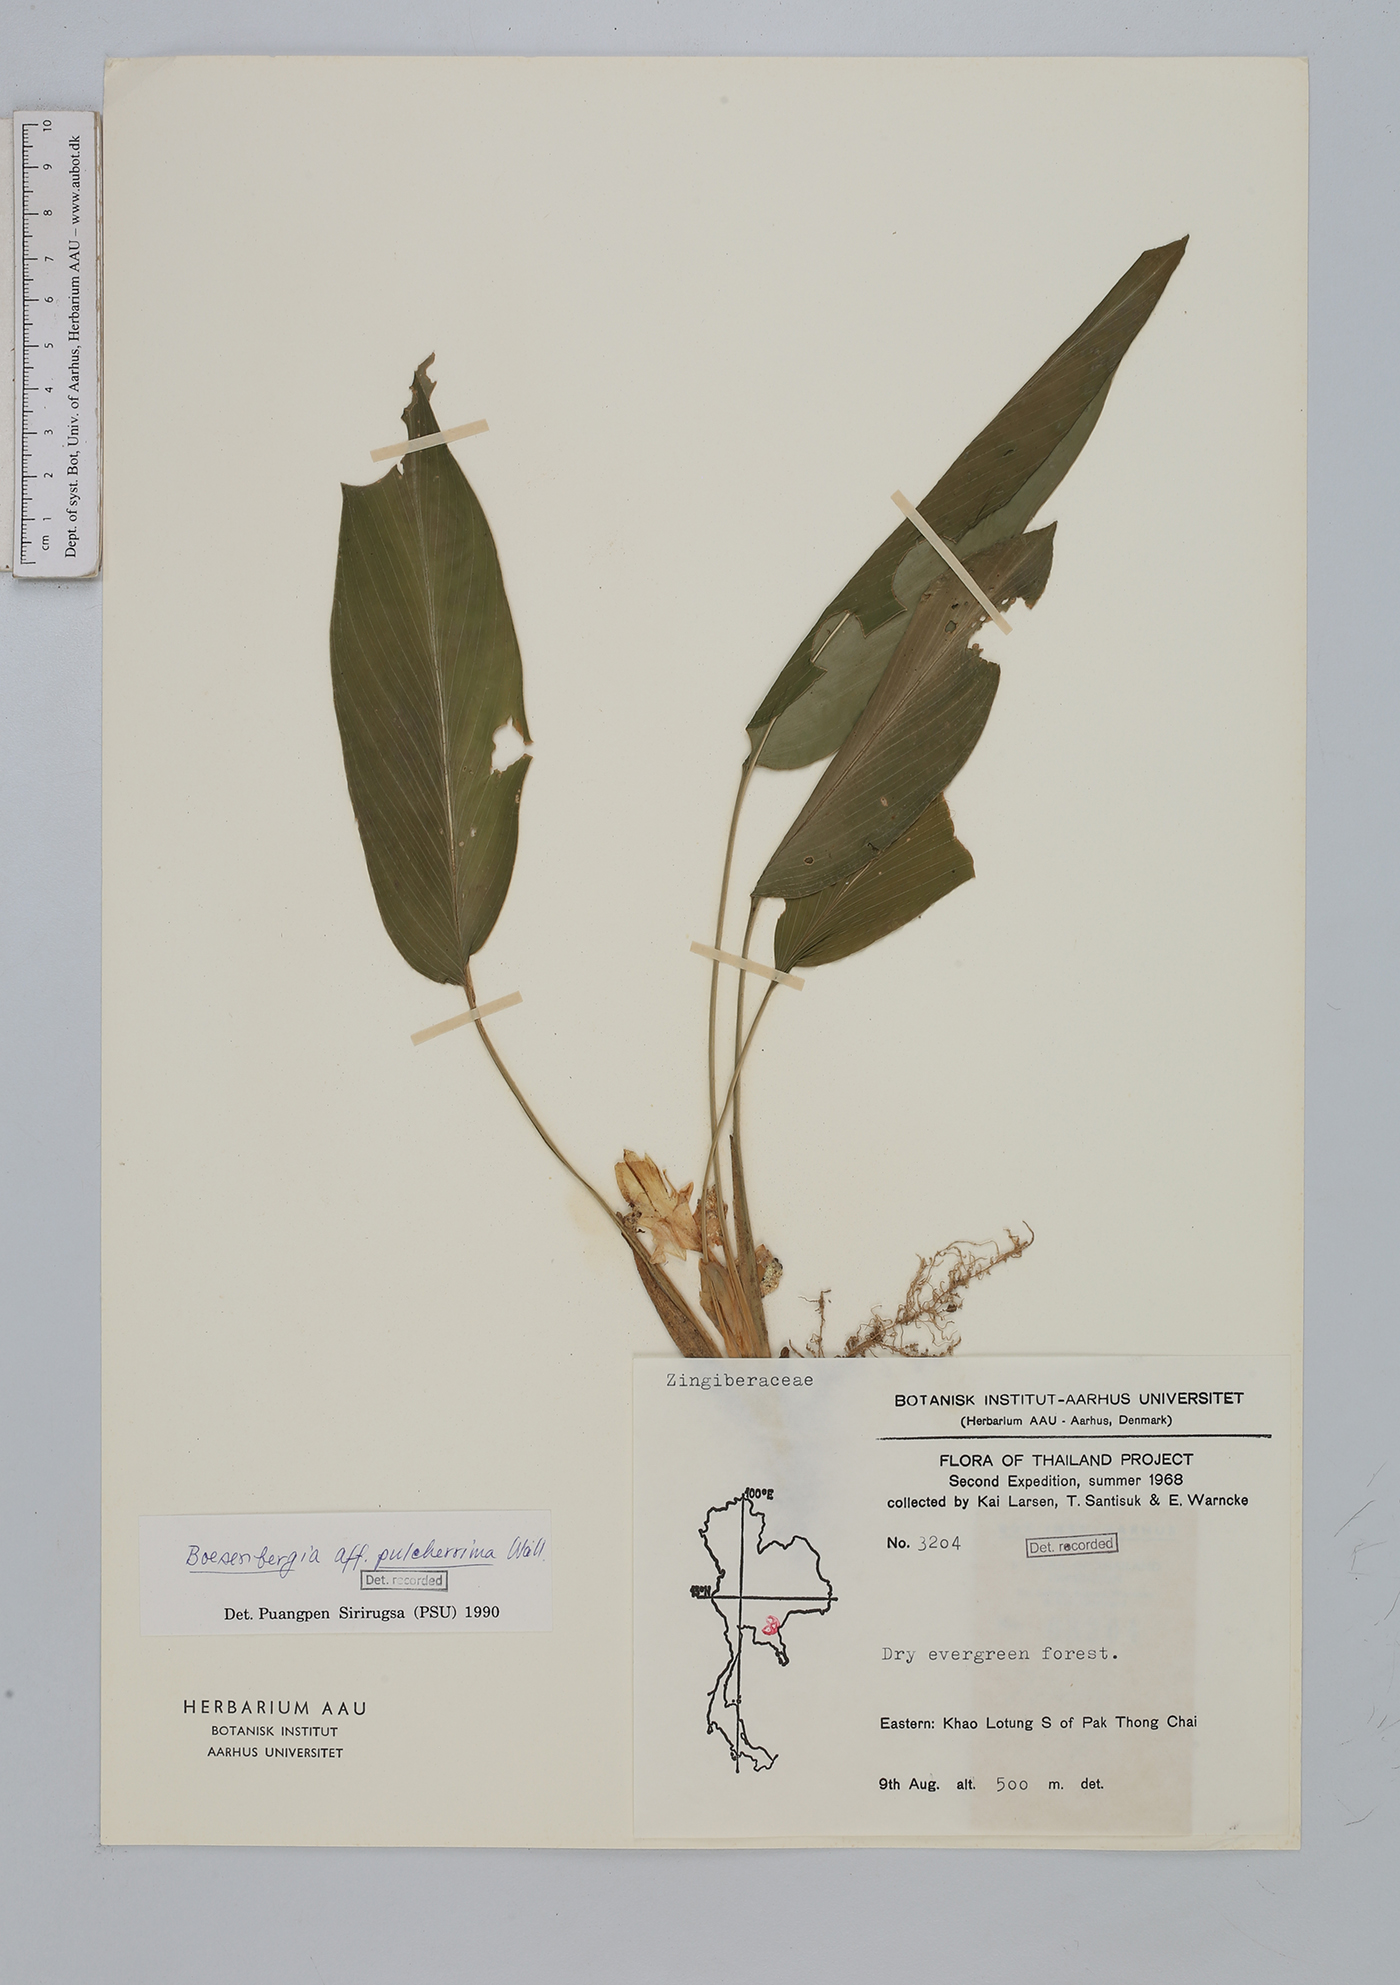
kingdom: Plantae
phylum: Tracheophyta
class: Liliopsida
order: Zingiberales
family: Zingiberaceae
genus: Boesenbergia
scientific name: Boesenbergia pulcherrima
